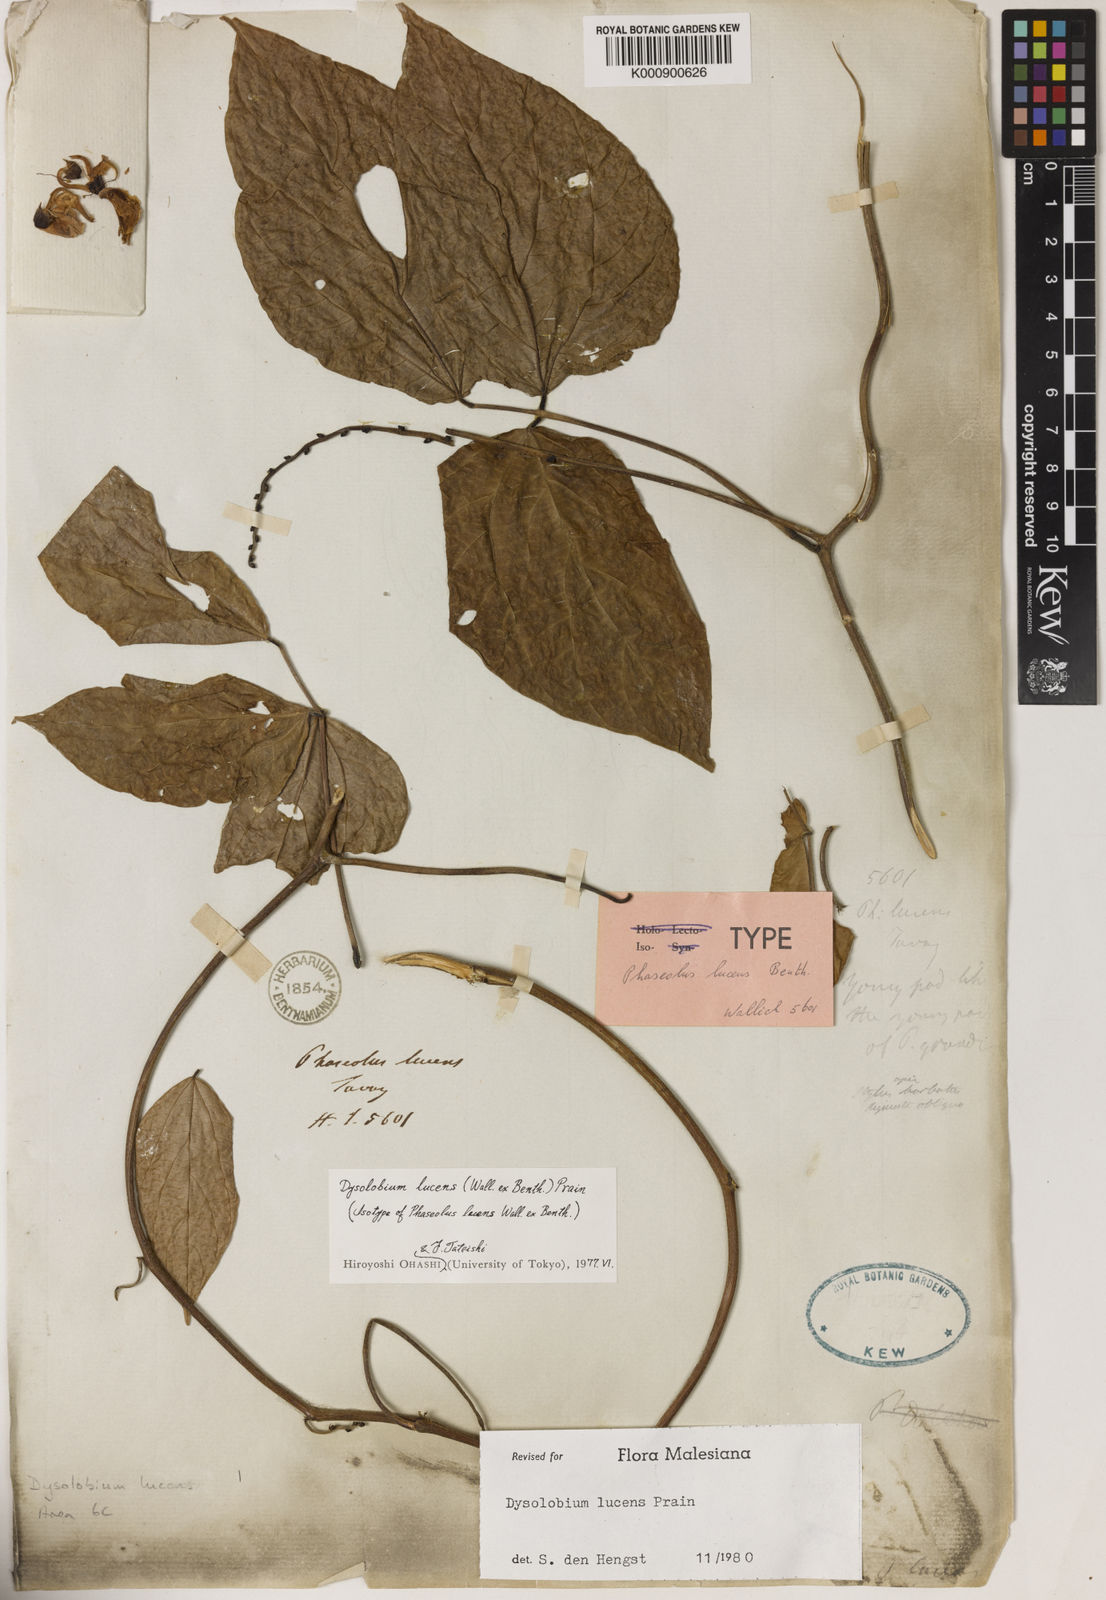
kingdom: Plantae
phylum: Tracheophyta
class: Magnoliopsida
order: Fabales
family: Fabaceae
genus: Dysolobium
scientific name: Dysolobium lucens
